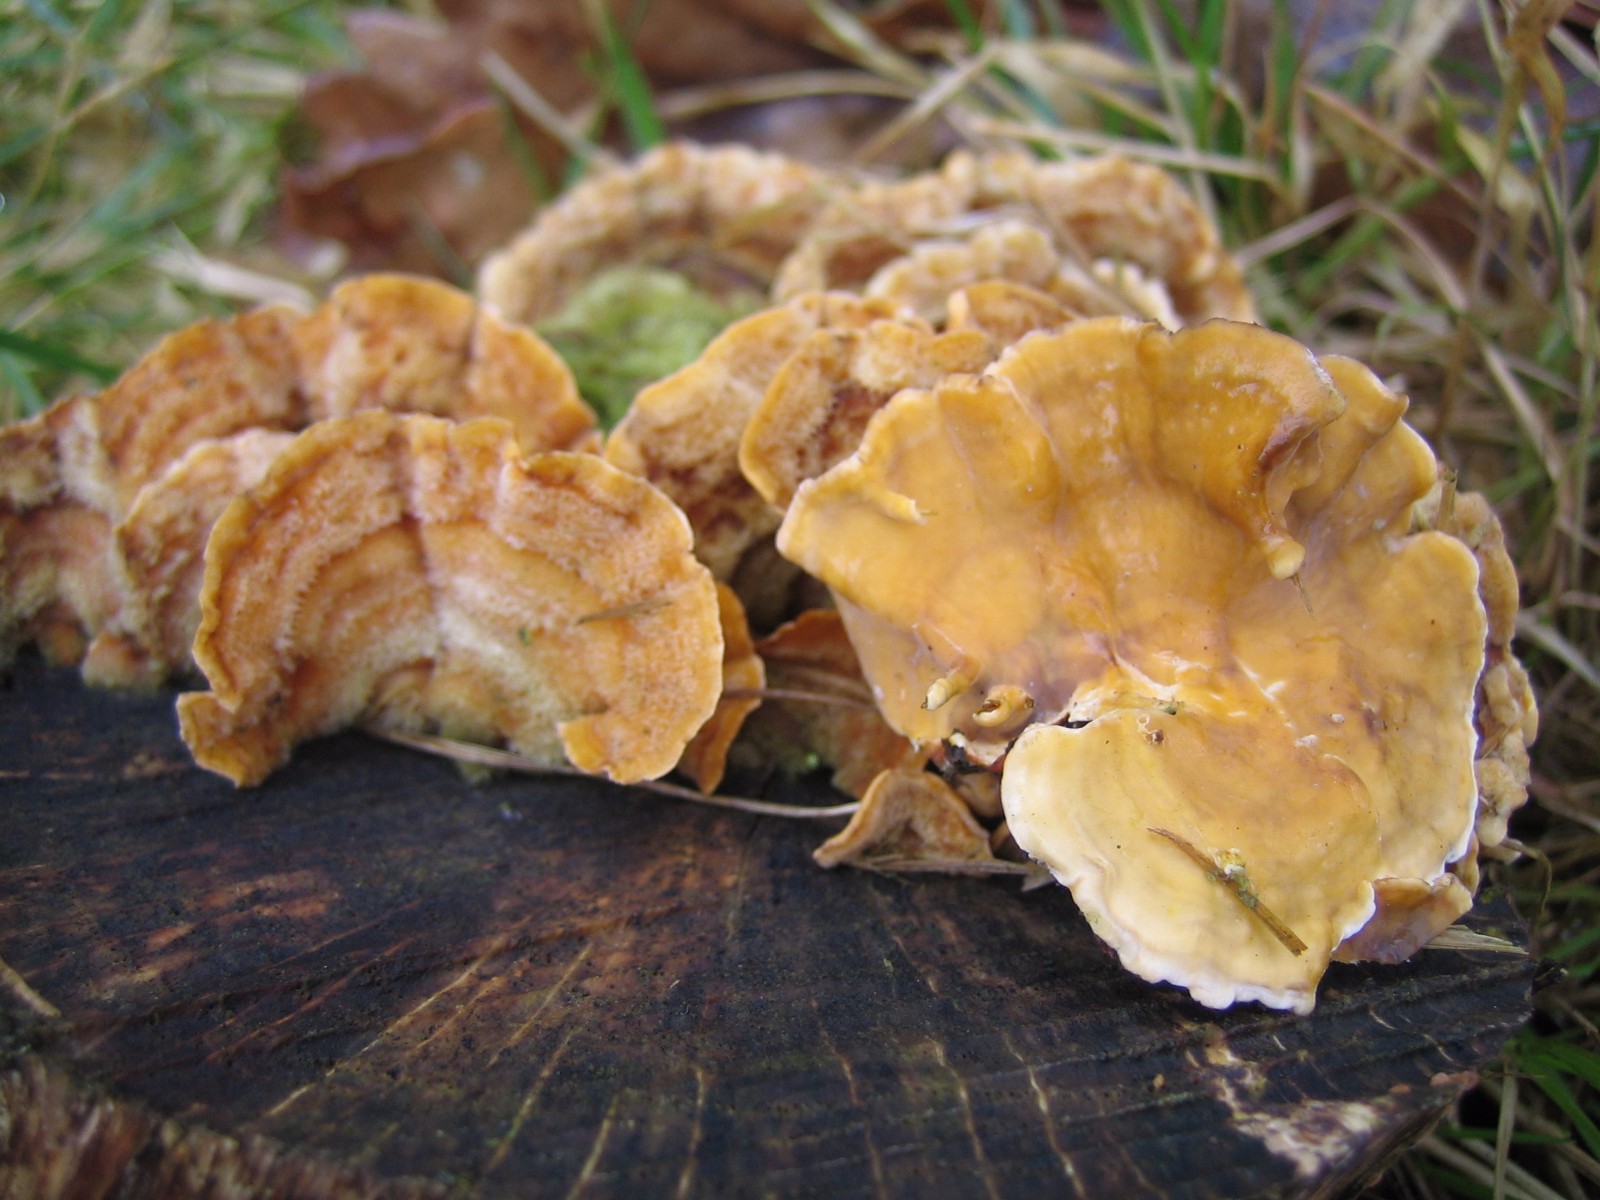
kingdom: Fungi
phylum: Basidiomycota
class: Agaricomycetes
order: Russulales
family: Stereaceae
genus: Stereum
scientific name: Stereum hirsutum
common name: håret lædersvamp
